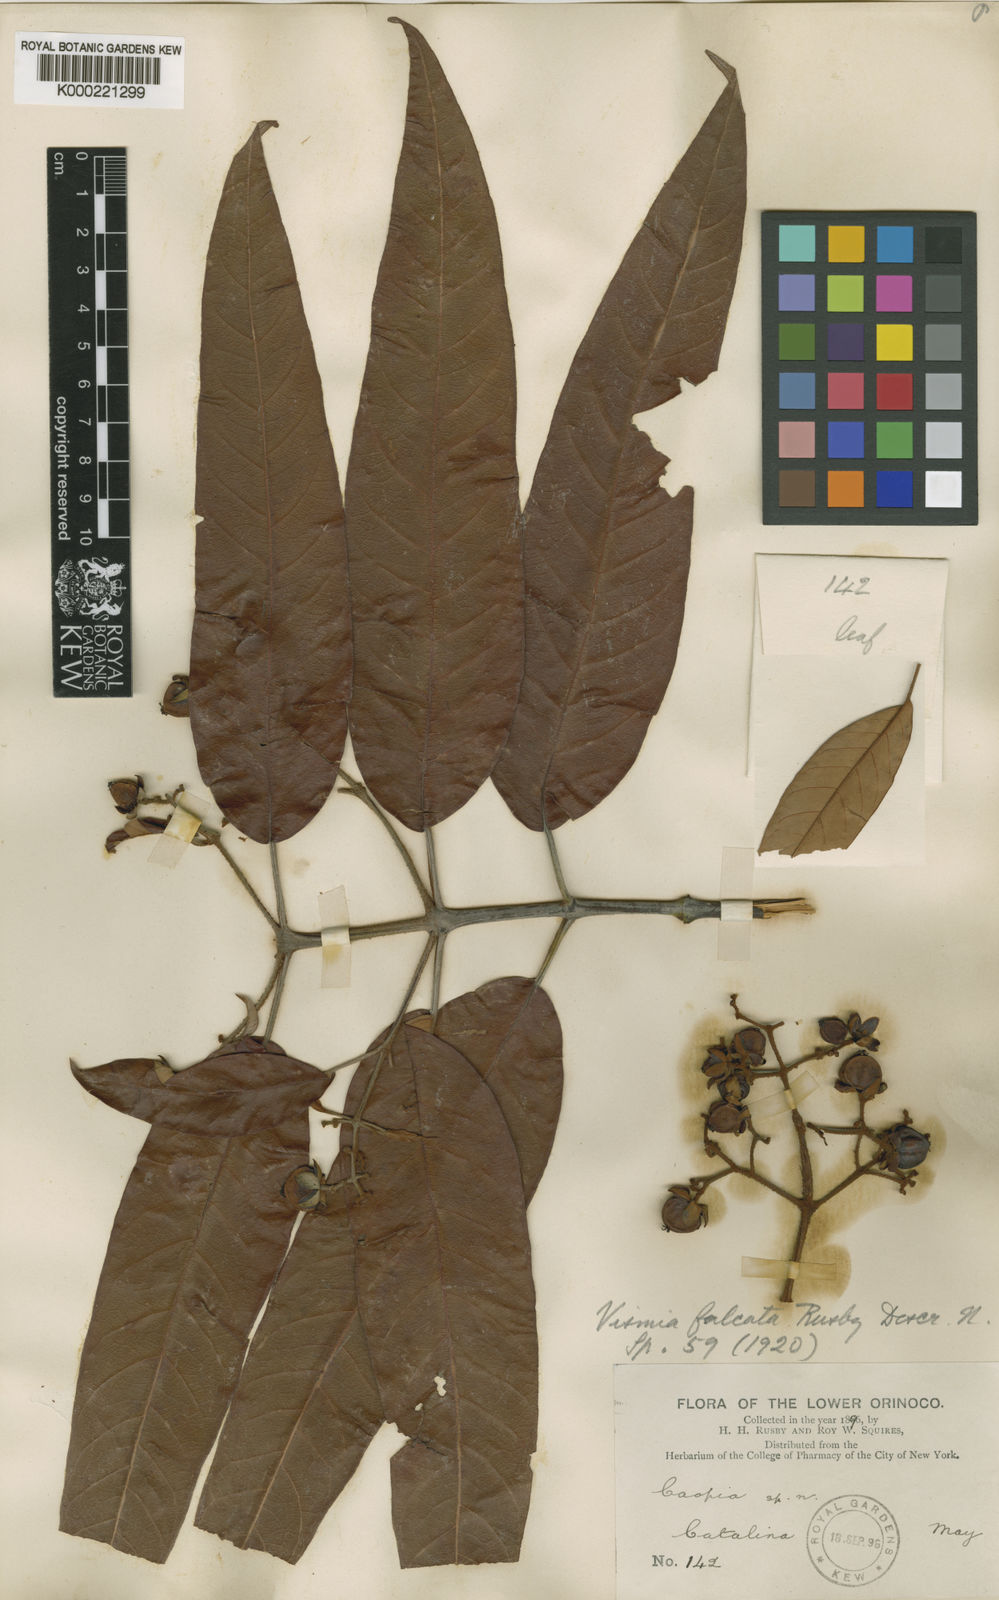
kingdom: Plantae
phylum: Tracheophyta
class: Magnoliopsida
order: Malpighiales
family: Hypericaceae
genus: Vismia
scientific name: Vismia
